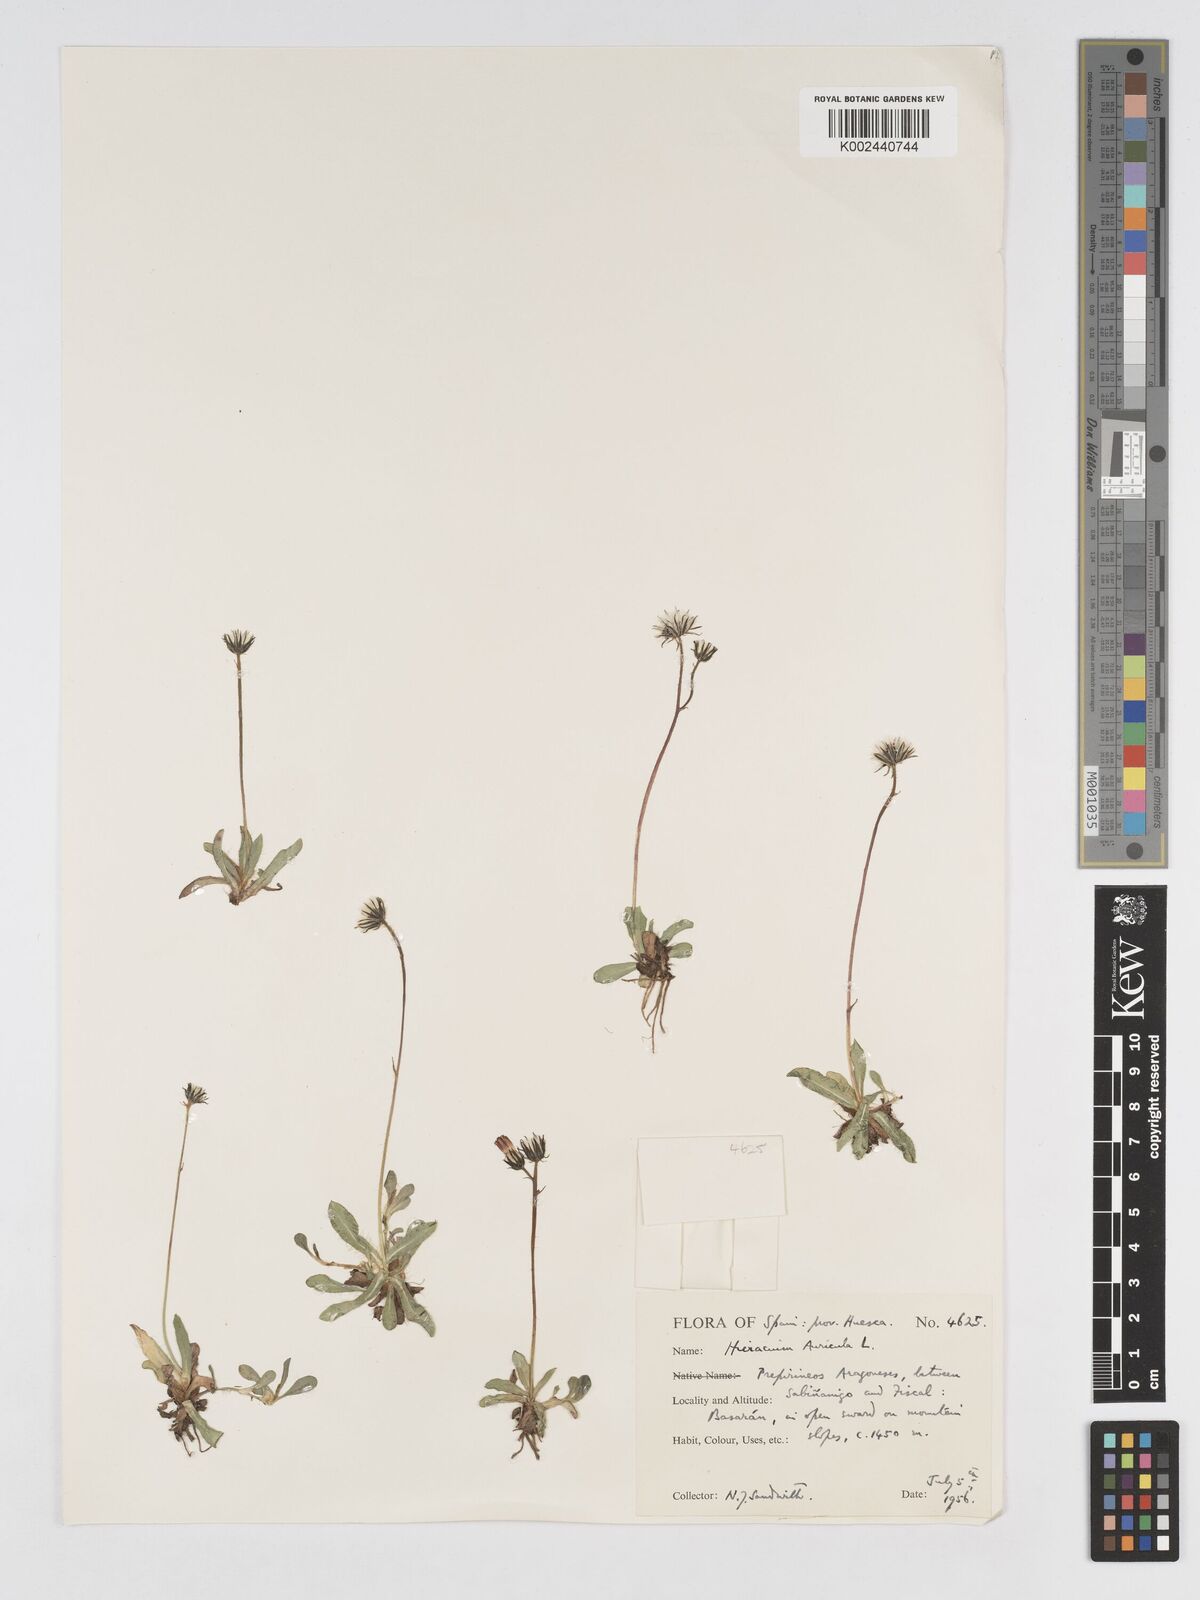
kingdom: Plantae
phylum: Tracheophyta
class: Magnoliopsida
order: Asterales
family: Asteraceae
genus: Pilosella
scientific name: Pilosella floribunda
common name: Glaucous hawkweed
